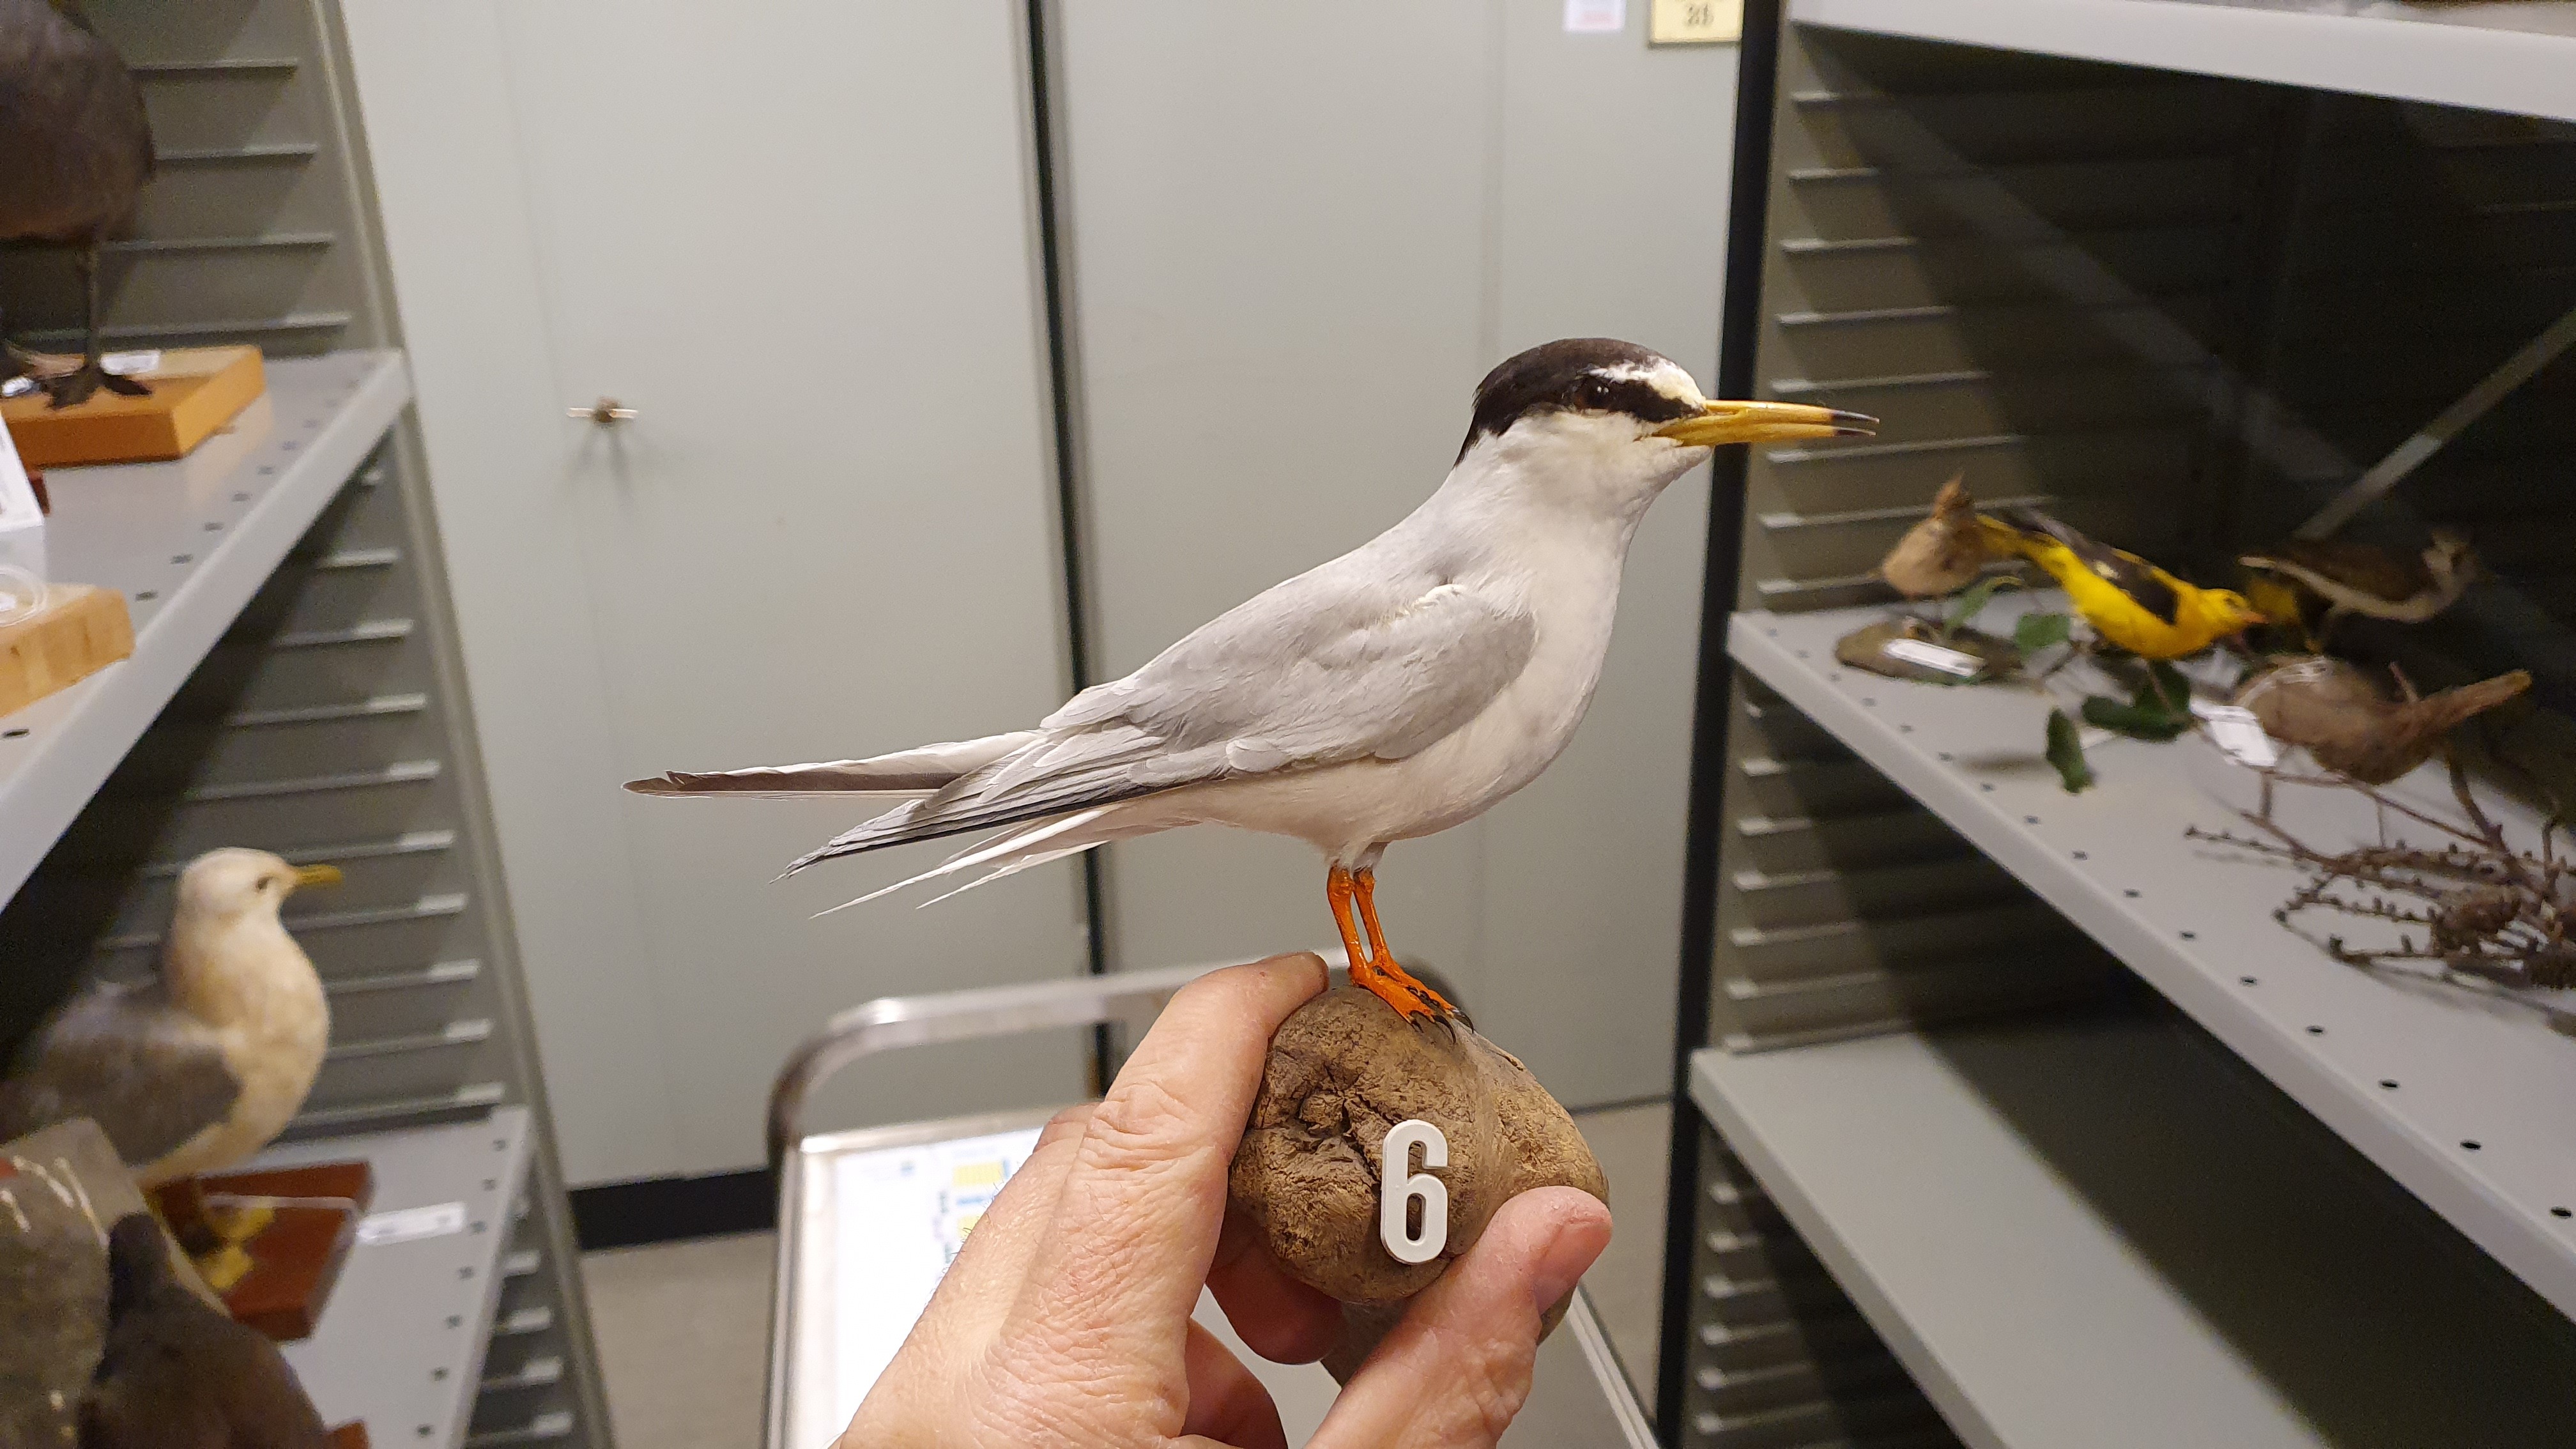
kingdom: Animalia
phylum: Chordata
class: Aves
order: Charadriiformes
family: Laridae
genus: Sternula
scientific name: Sternula albifrons
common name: Little tern
